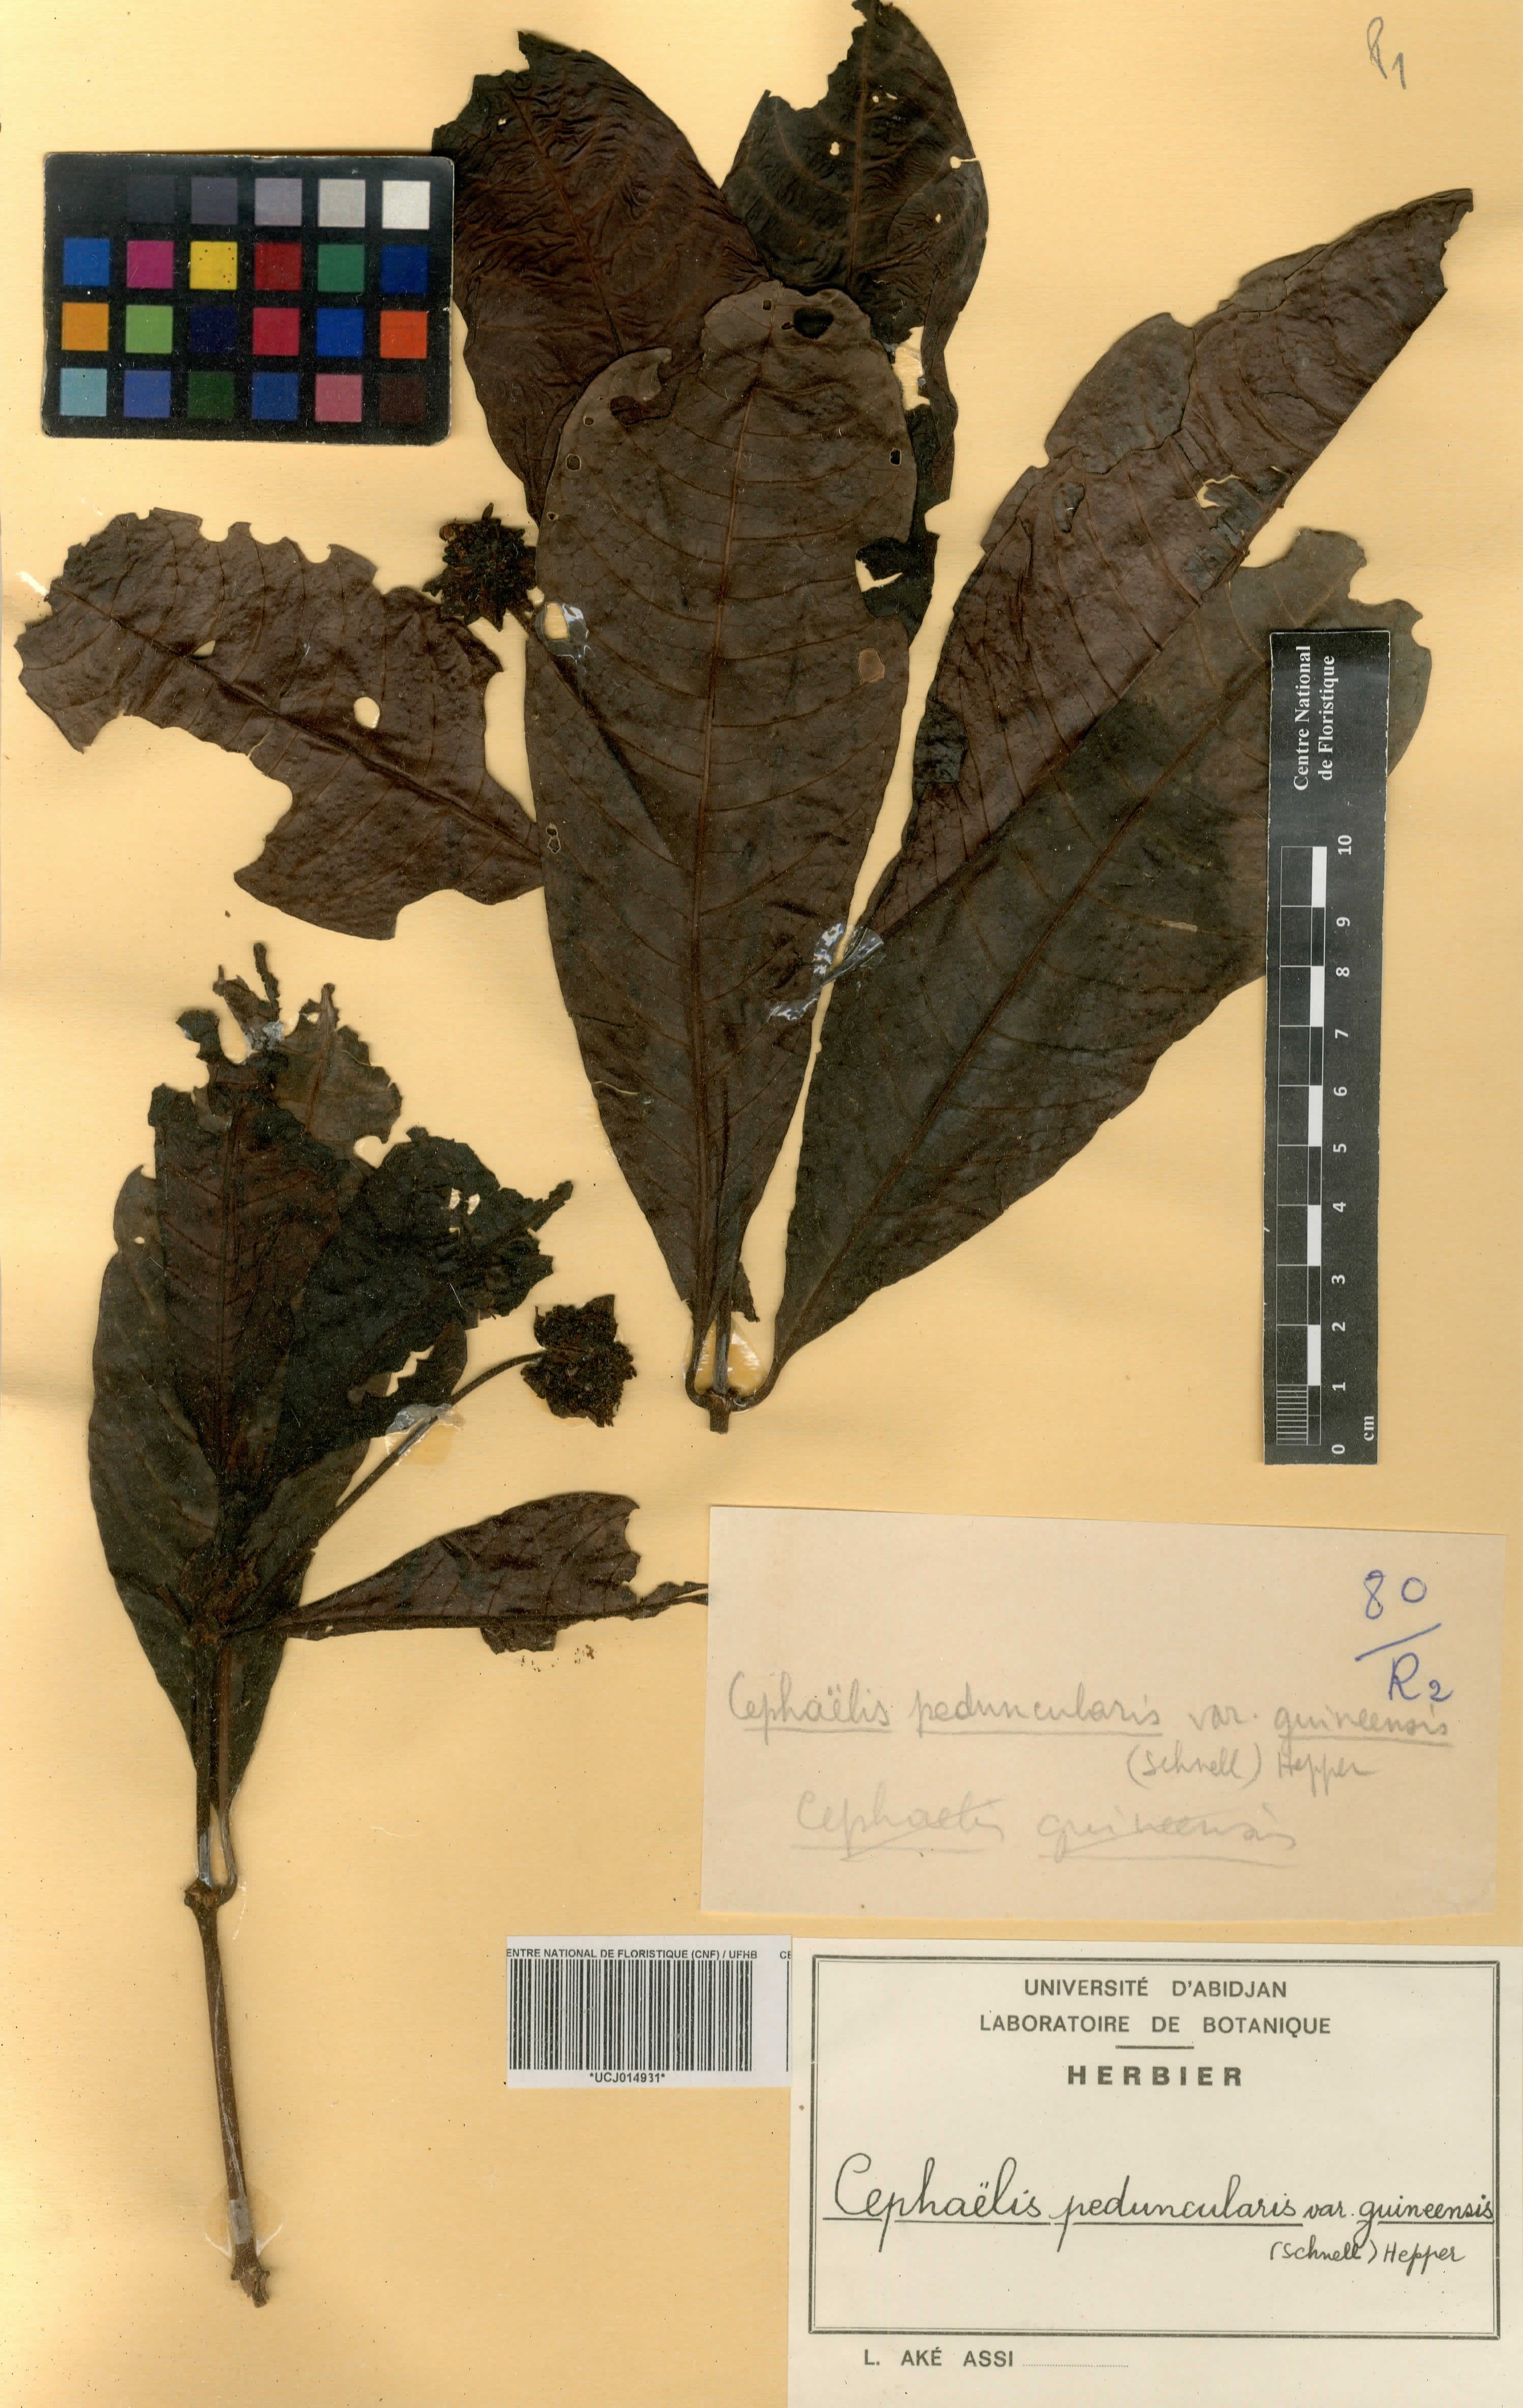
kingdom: Plantae
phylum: Tracheophyta
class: Magnoliopsida
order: Gentianales
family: Rubiaceae
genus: Psychotria
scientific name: Psychotria peduncularis
